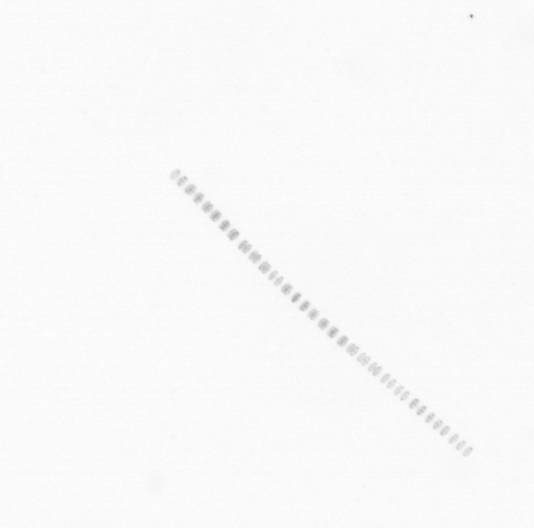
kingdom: Chromista
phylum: Ochrophyta
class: Bacillariophyceae
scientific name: Bacillariophyceae
